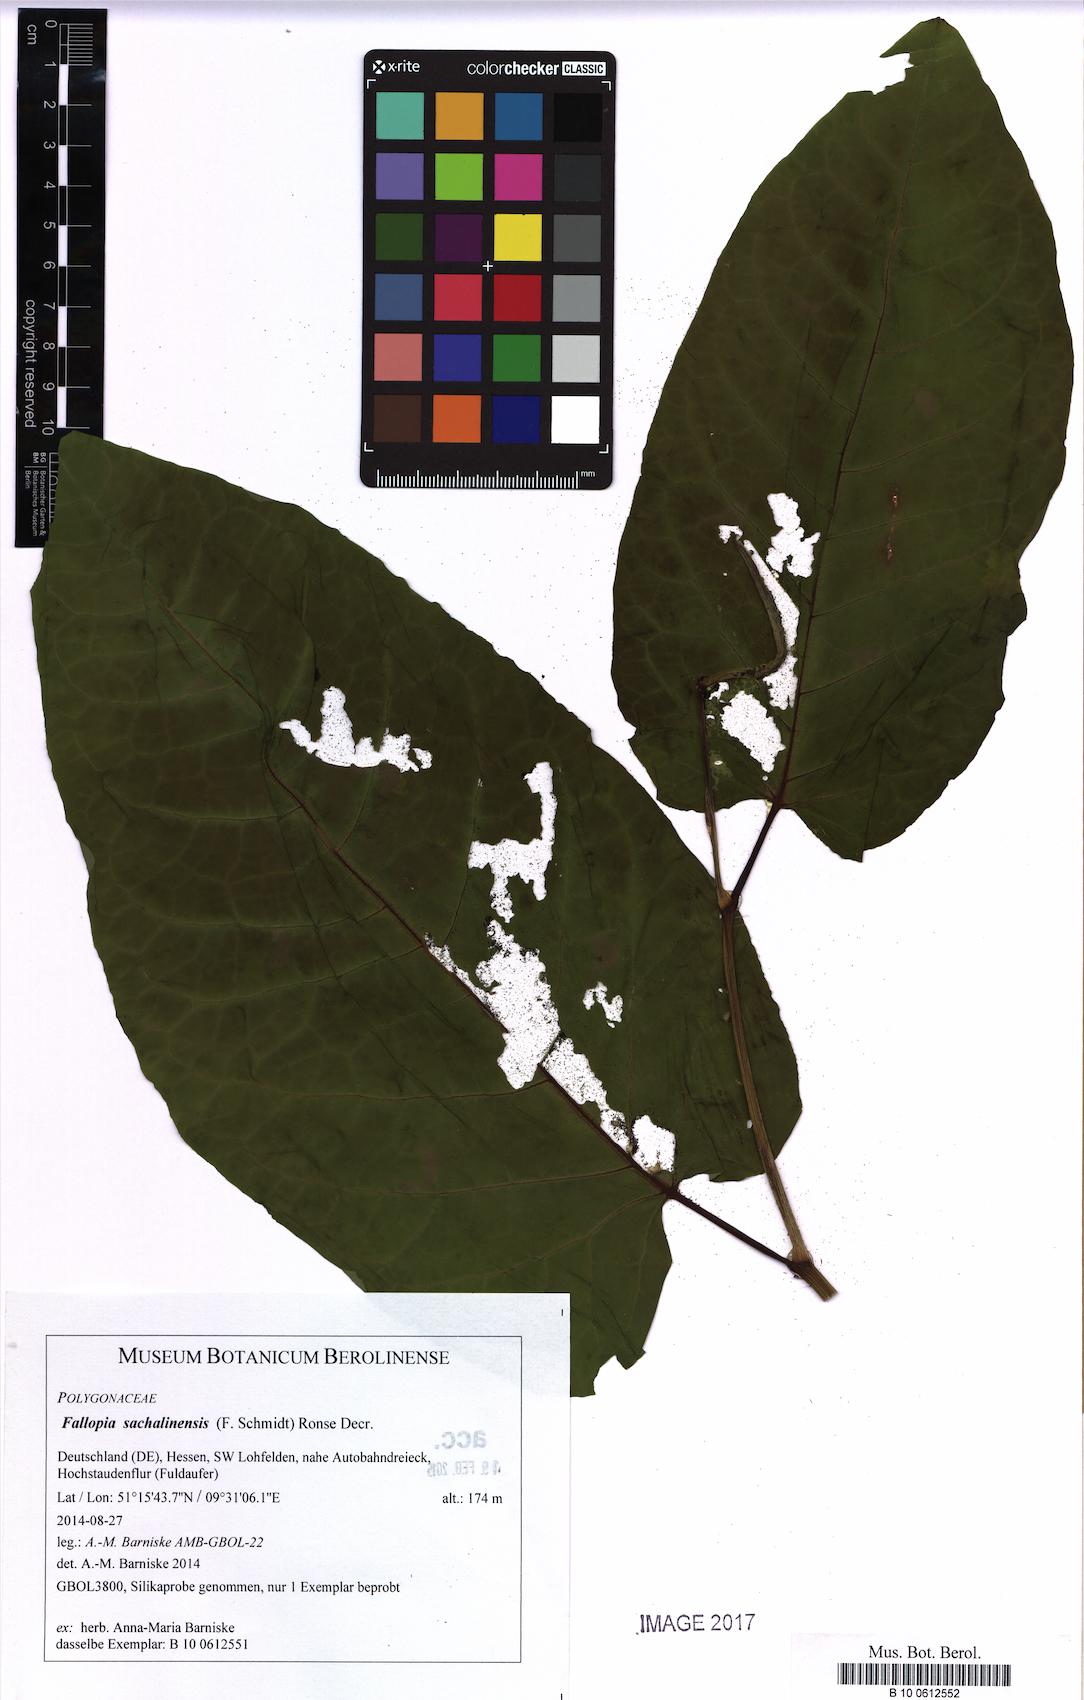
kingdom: Plantae
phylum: Tracheophyta
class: Magnoliopsida
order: Caryophyllales
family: Polygonaceae
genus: Reynoutria
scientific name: Reynoutria sachalinensis
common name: Giant knotweed
